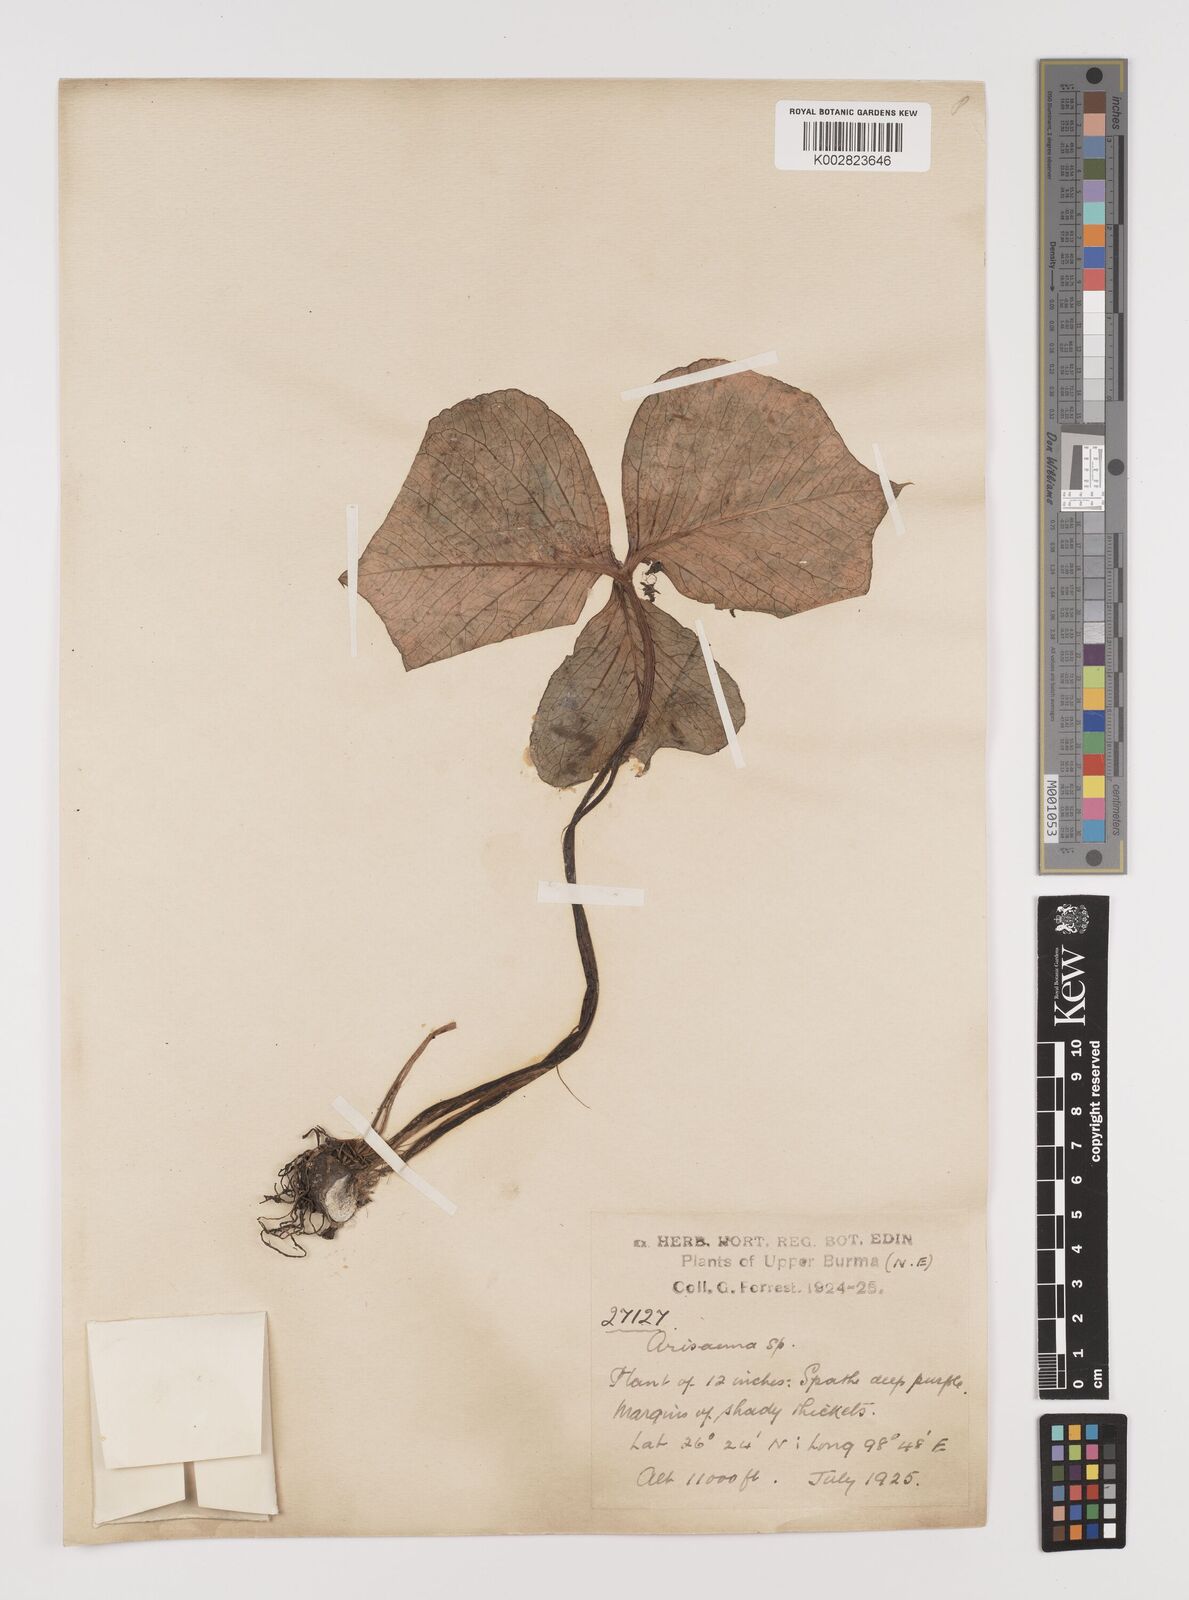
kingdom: Plantae
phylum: Tracheophyta
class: Liliopsida
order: Alismatales
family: Araceae
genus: Arisaema
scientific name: Arisaema
